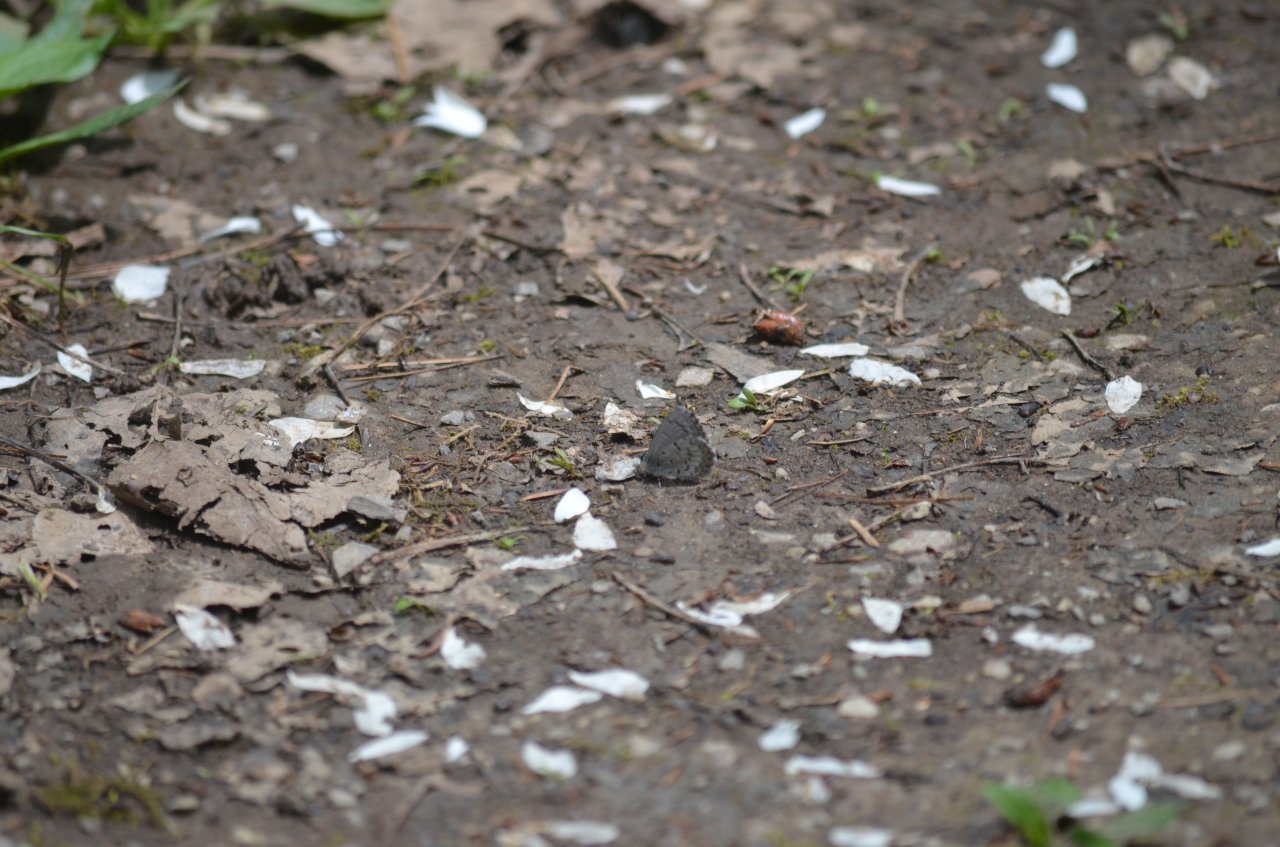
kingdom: Animalia
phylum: Arthropoda
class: Insecta
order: Lepidoptera
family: Lycaenidae
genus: Celastrina
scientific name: Celastrina
